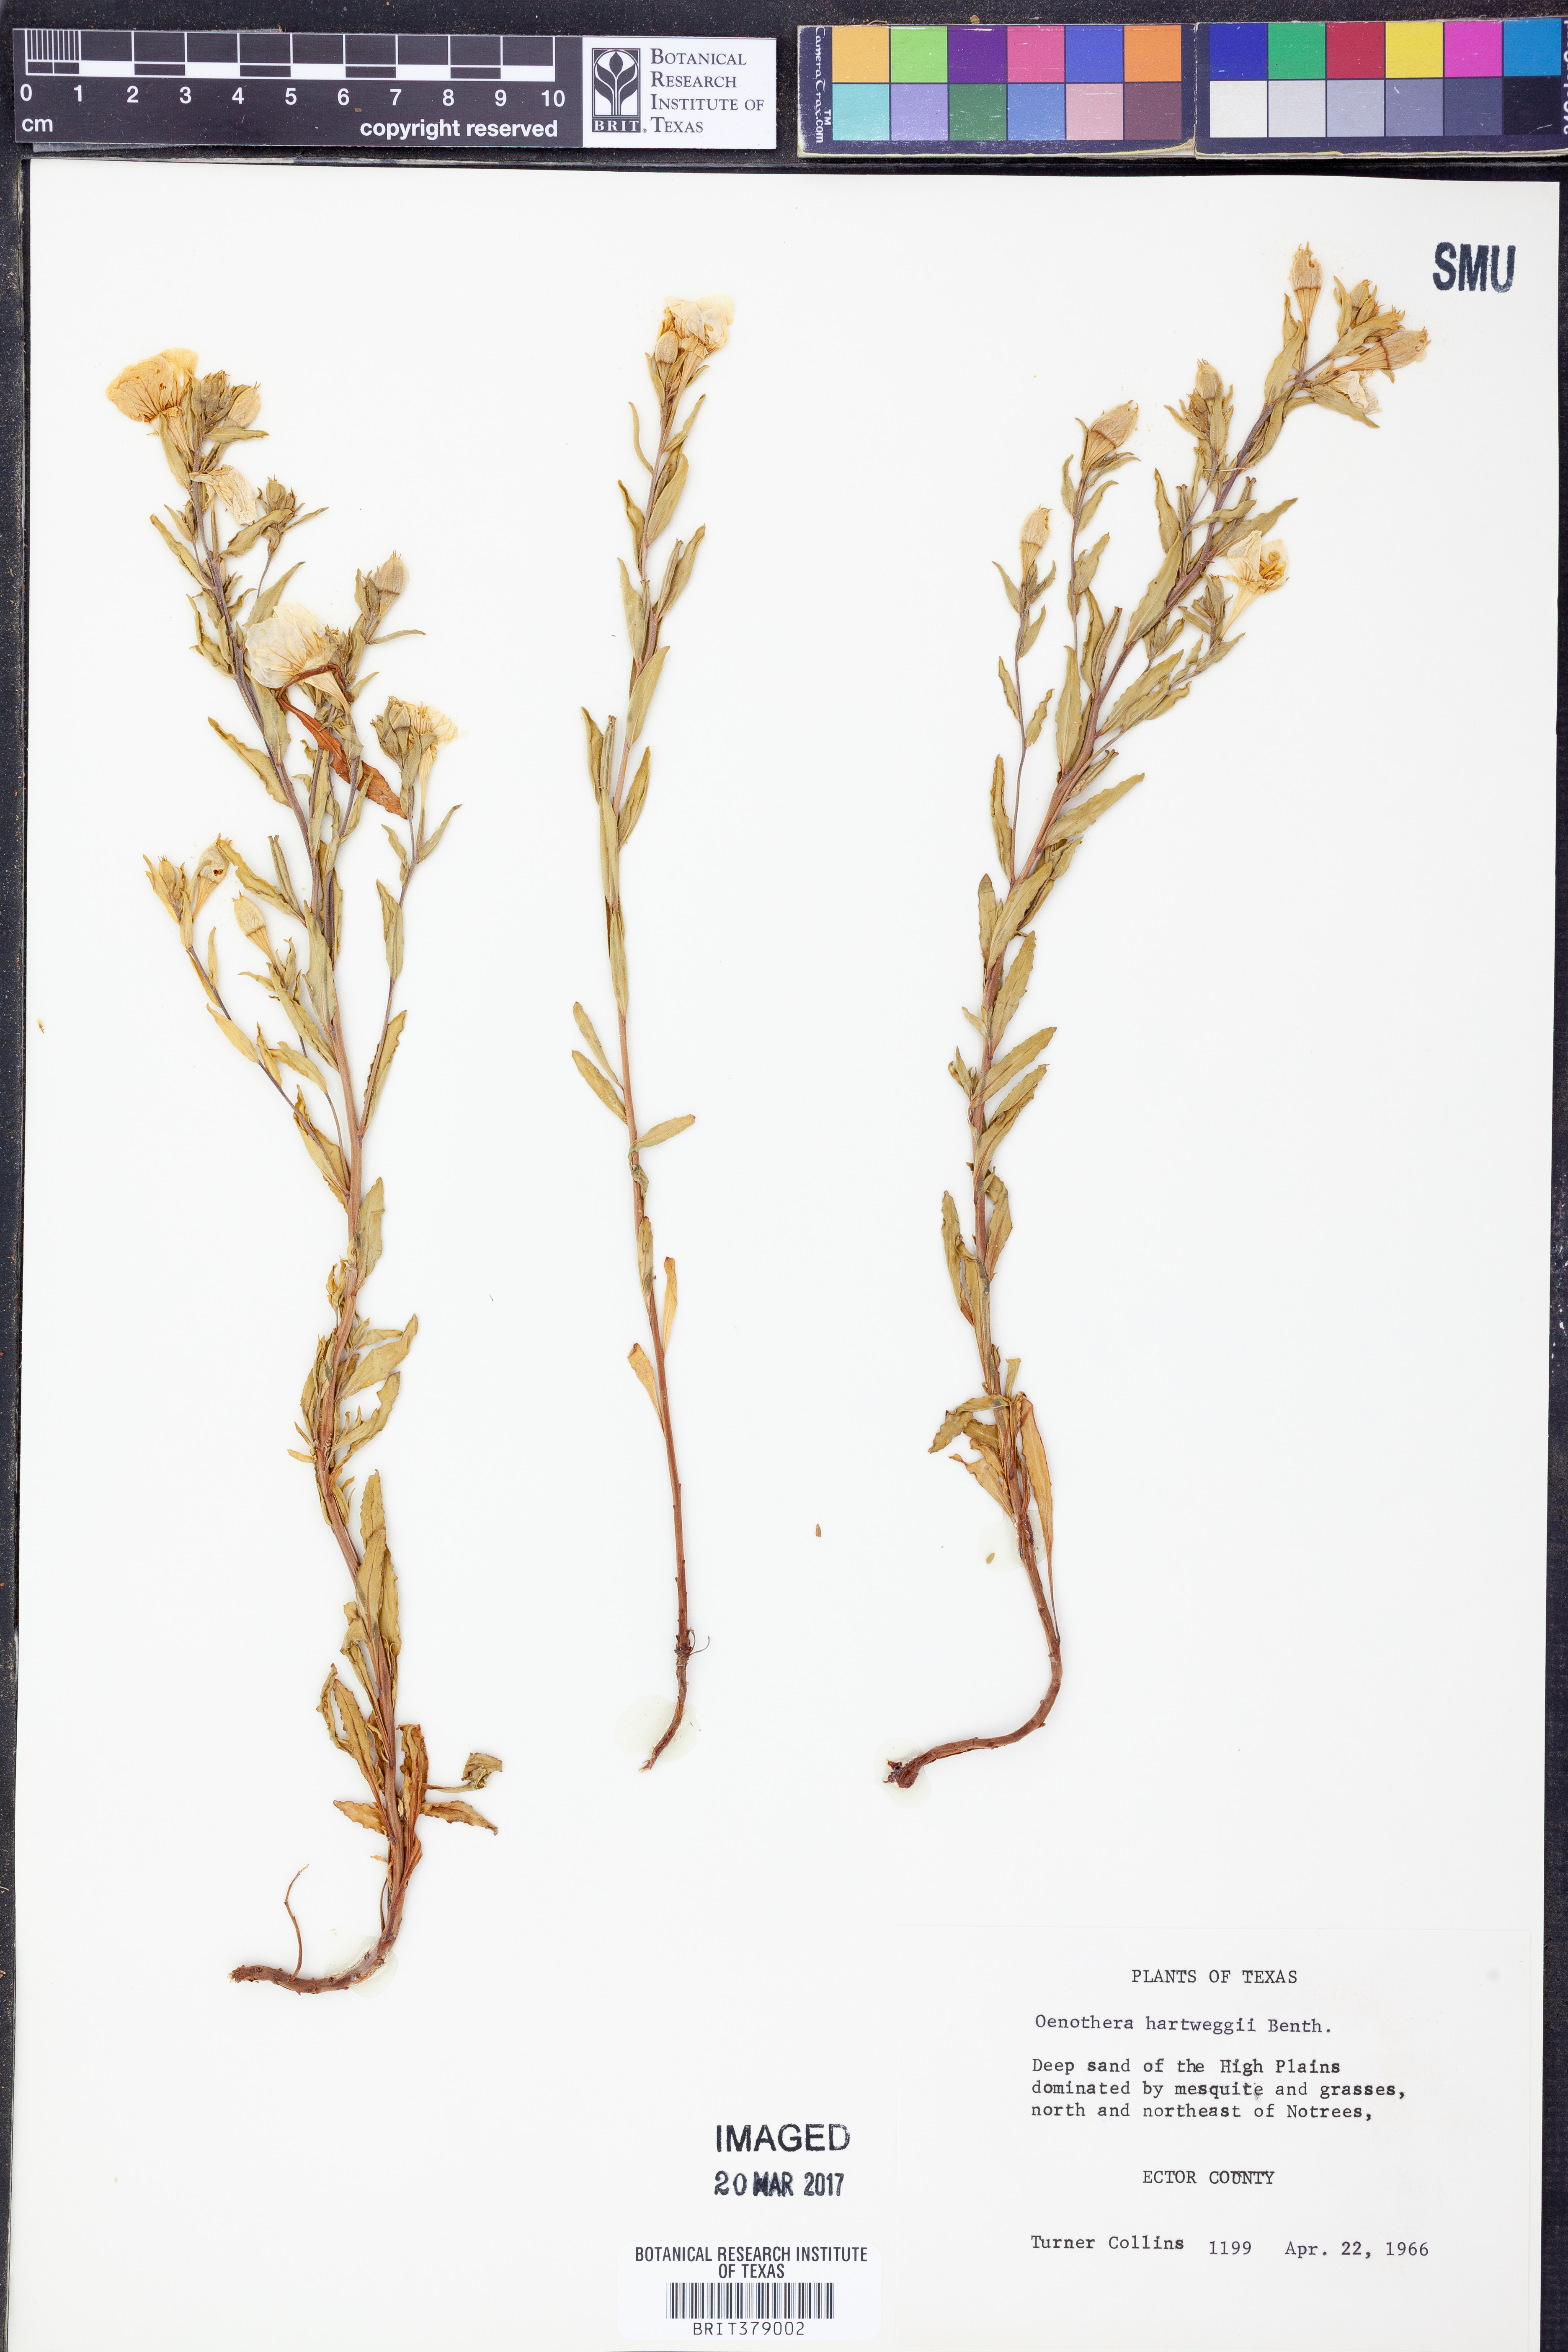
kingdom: Plantae
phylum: Tracheophyta
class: Magnoliopsida
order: Myrtales
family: Onagraceae
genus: Oenothera
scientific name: Oenothera hartwegii
